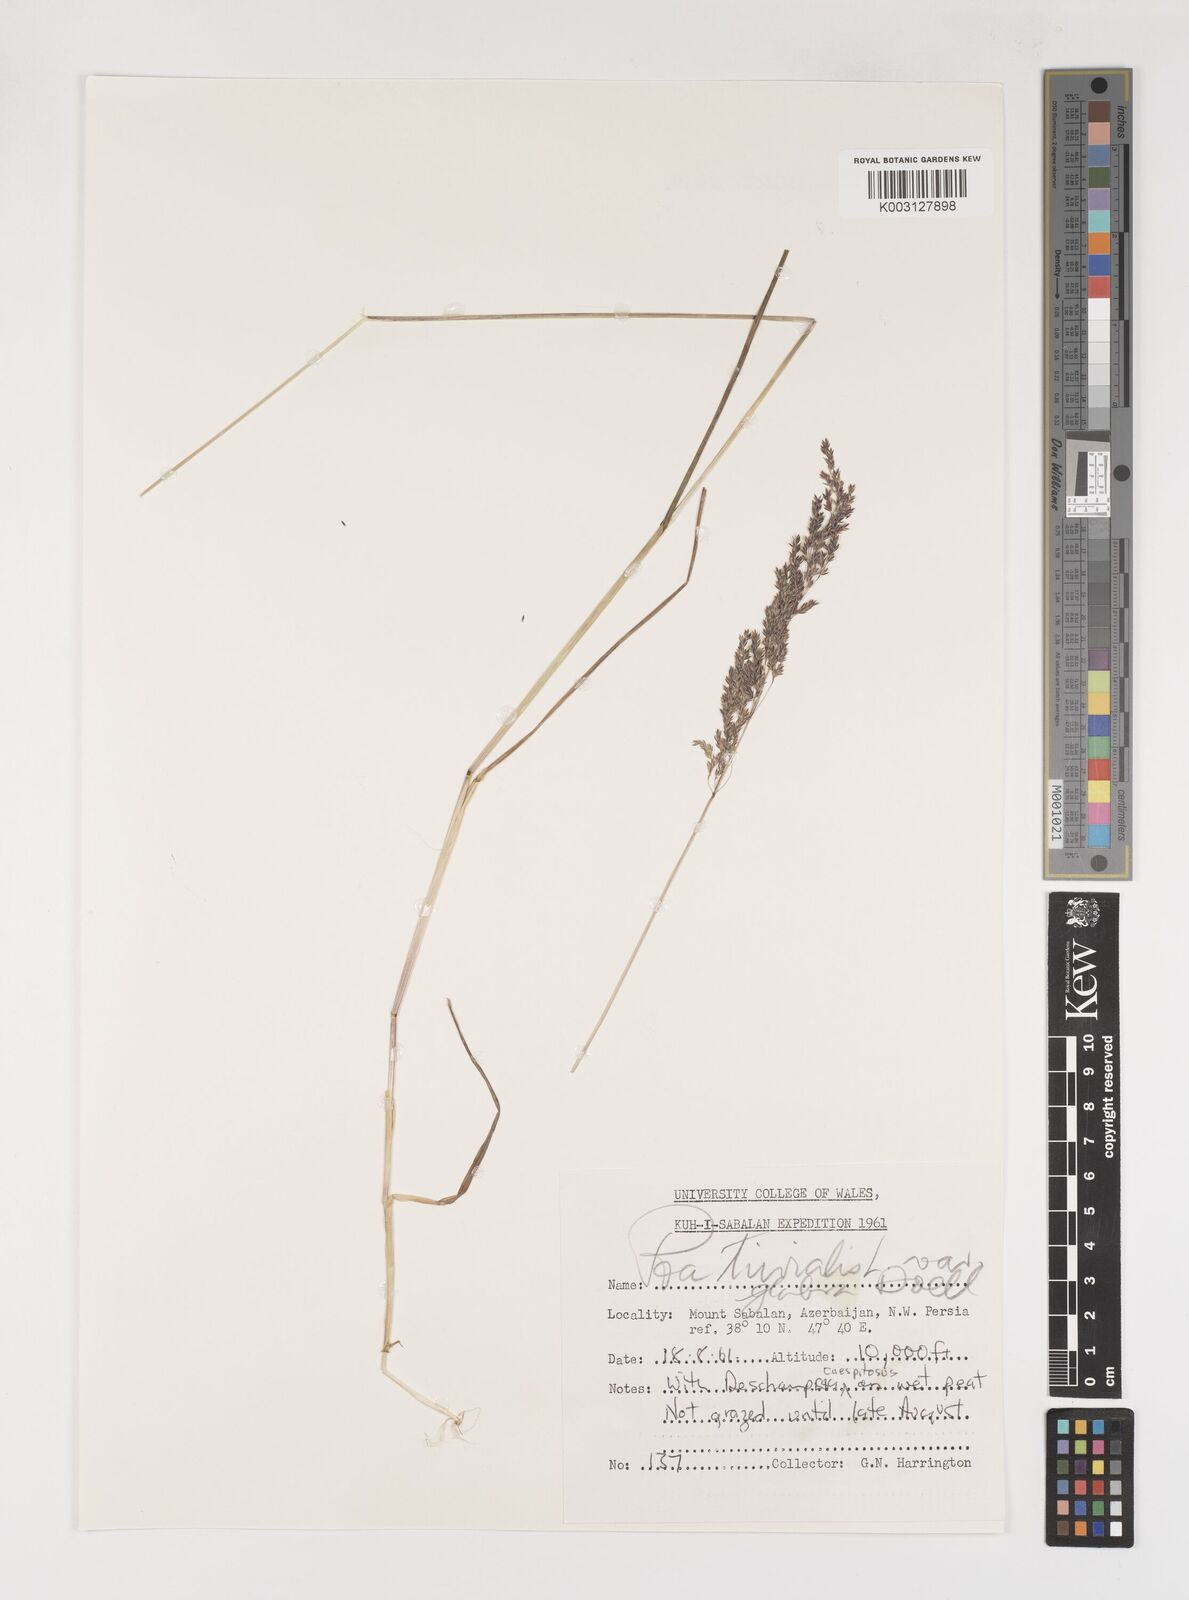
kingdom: Plantae
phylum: Tracheophyta
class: Liliopsida
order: Poales
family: Poaceae
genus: Poa
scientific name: Poa trivialis
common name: Rough bluegrass
